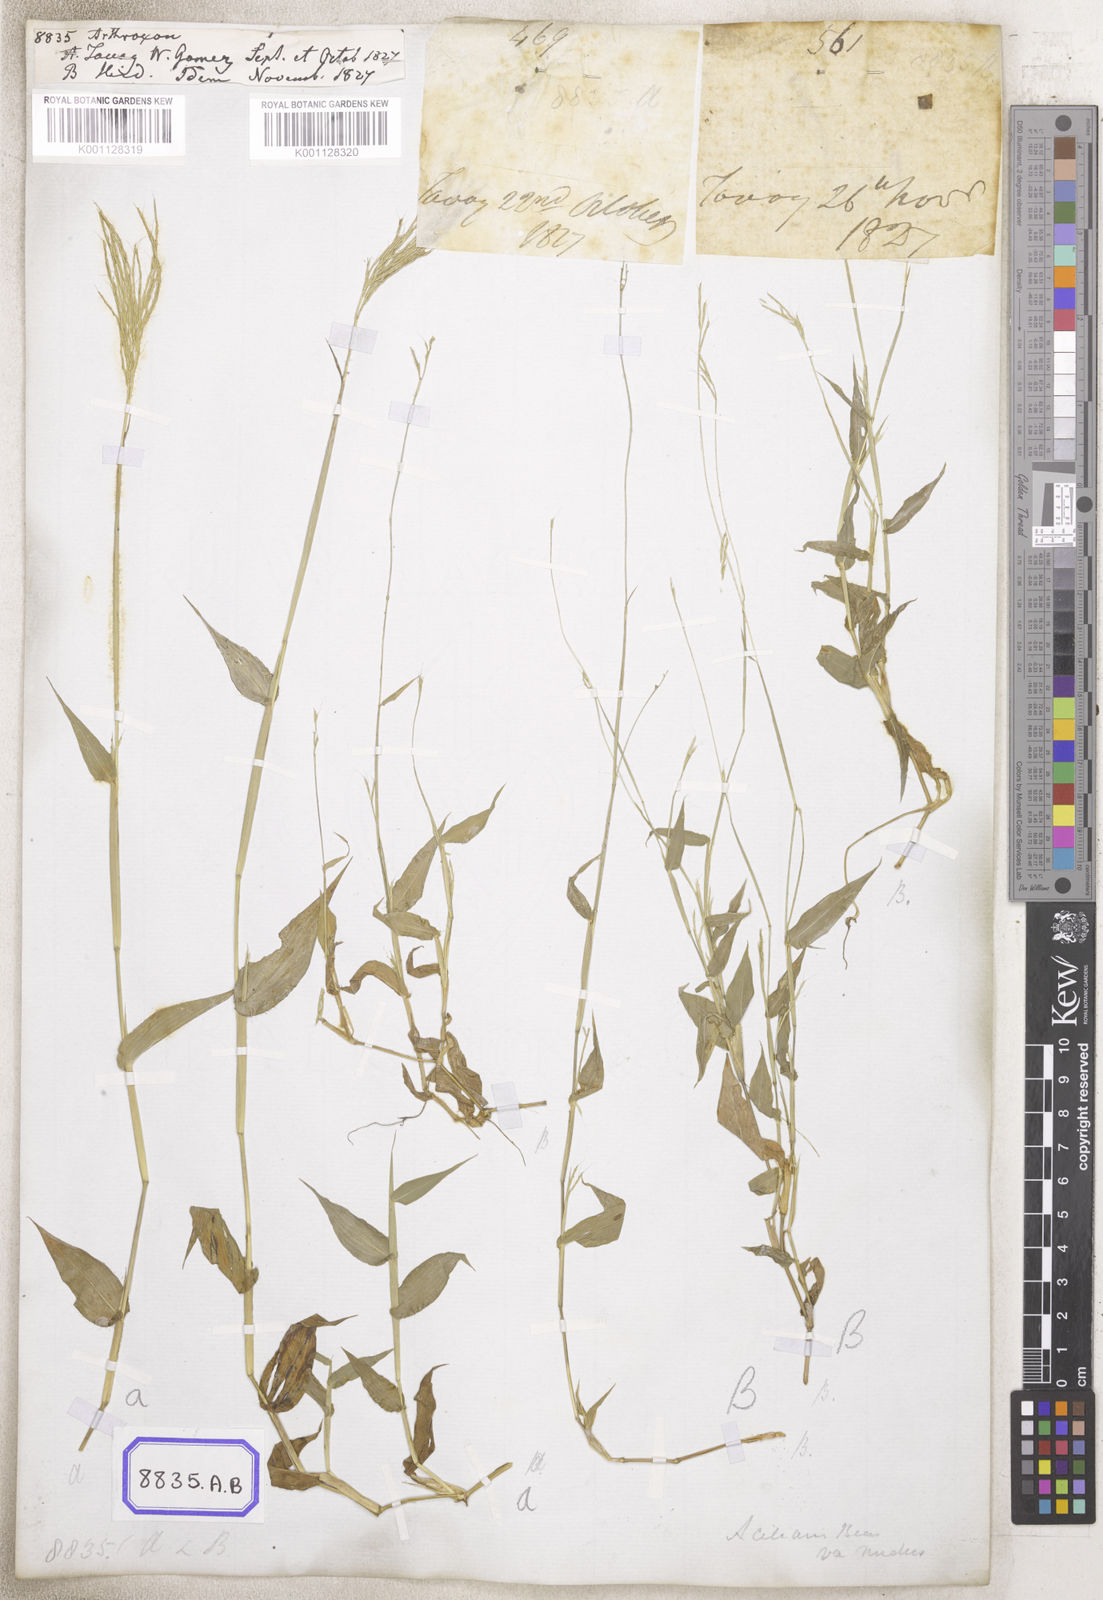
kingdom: Plantae
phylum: Tracheophyta
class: Liliopsida
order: Poales
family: Poaceae
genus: Arthraxon
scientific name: Arthraxon
